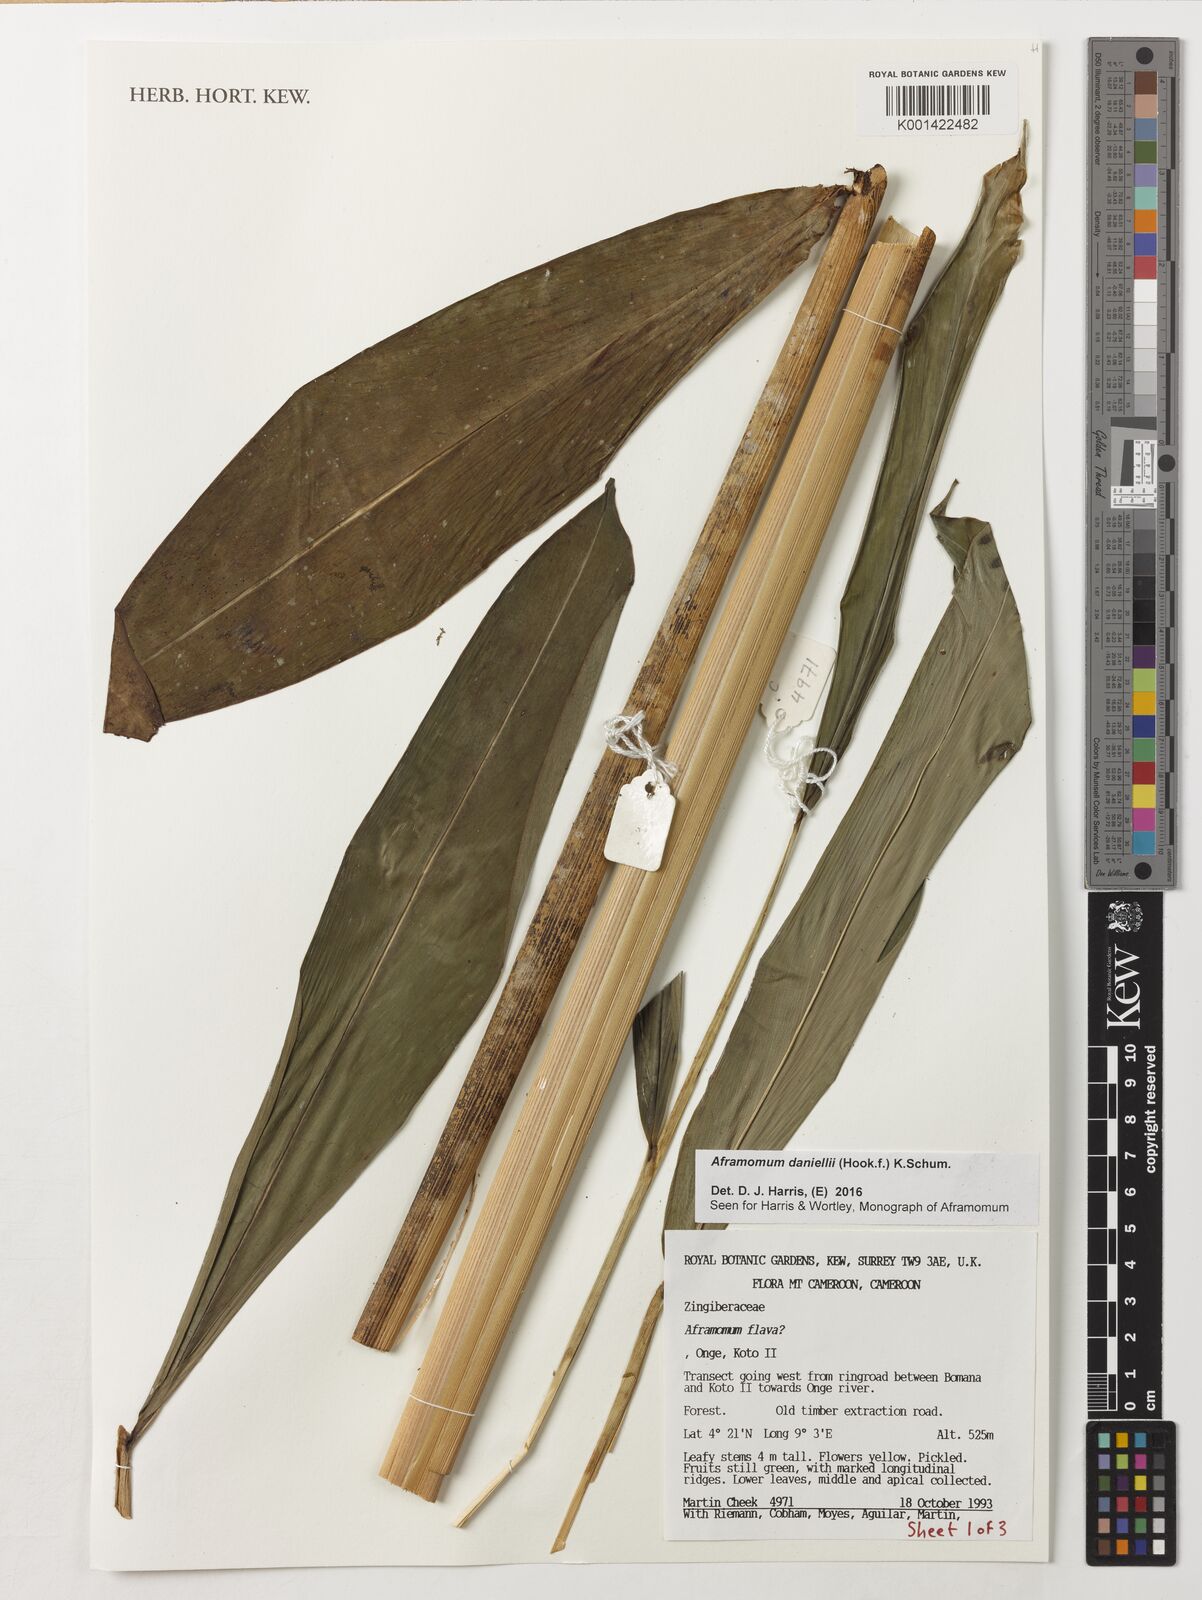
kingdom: Plantae
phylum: Tracheophyta
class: Liliopsida
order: Zingiberales
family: Zingiberaceae
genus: Aframomum
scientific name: Aframomum daniellii
